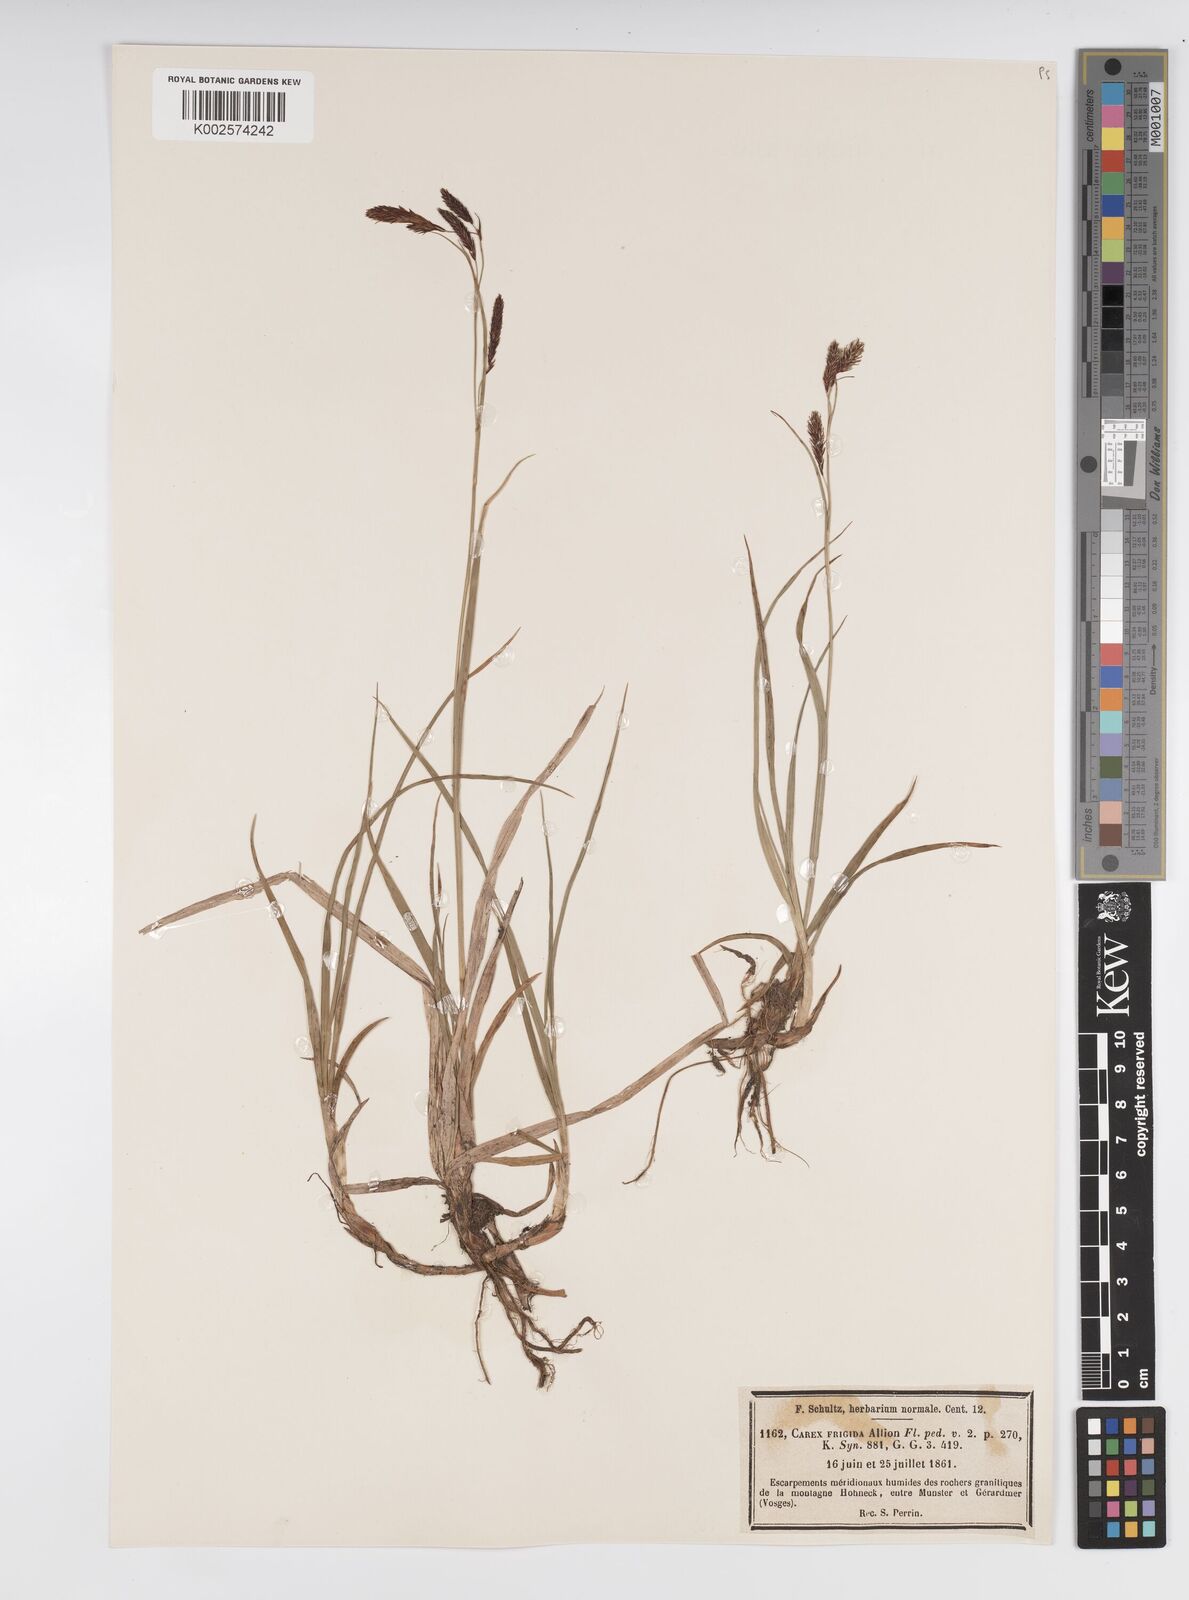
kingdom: Plantae
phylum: Tracheophyta
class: Liliopsida
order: Poales
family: Cyperaceae
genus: Carex
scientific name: Carex frigida
